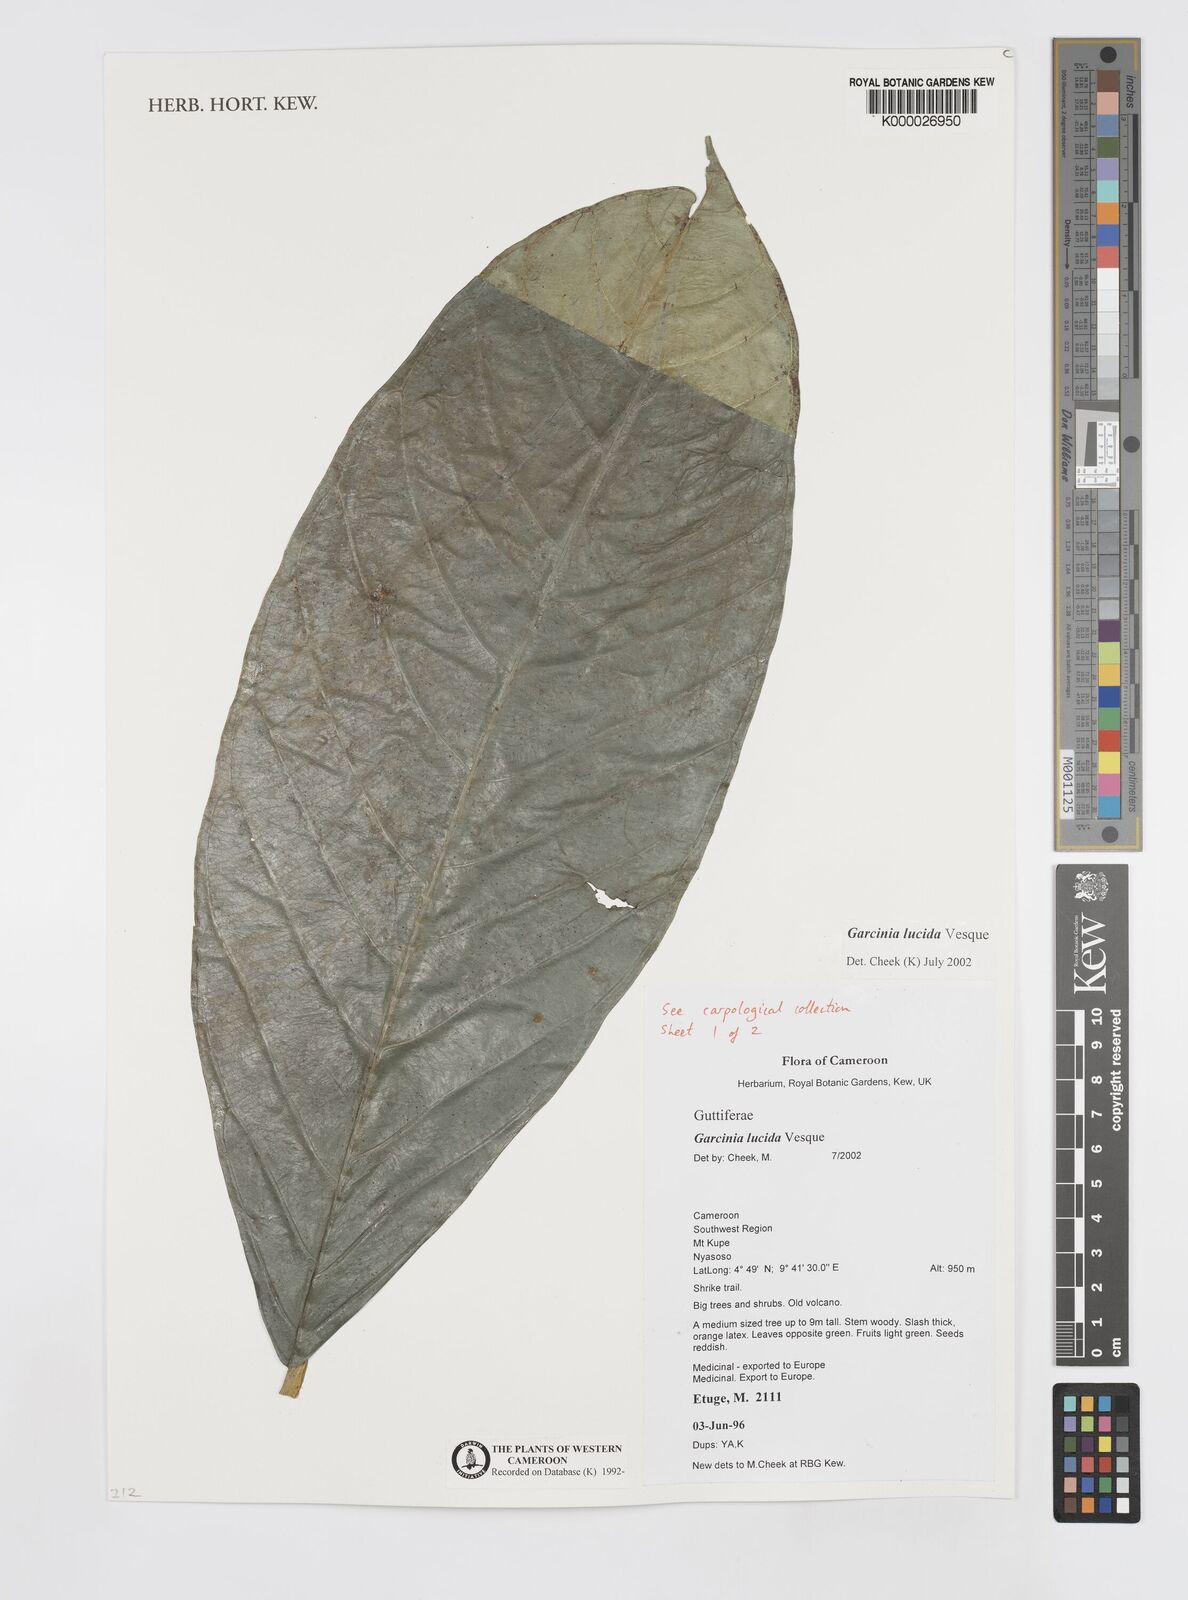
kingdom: Plantae
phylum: Tracheophyta
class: Magnoliopsida
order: Malpighiales
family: Clusiaceae
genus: Garcinia
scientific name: Garcinia lucida
